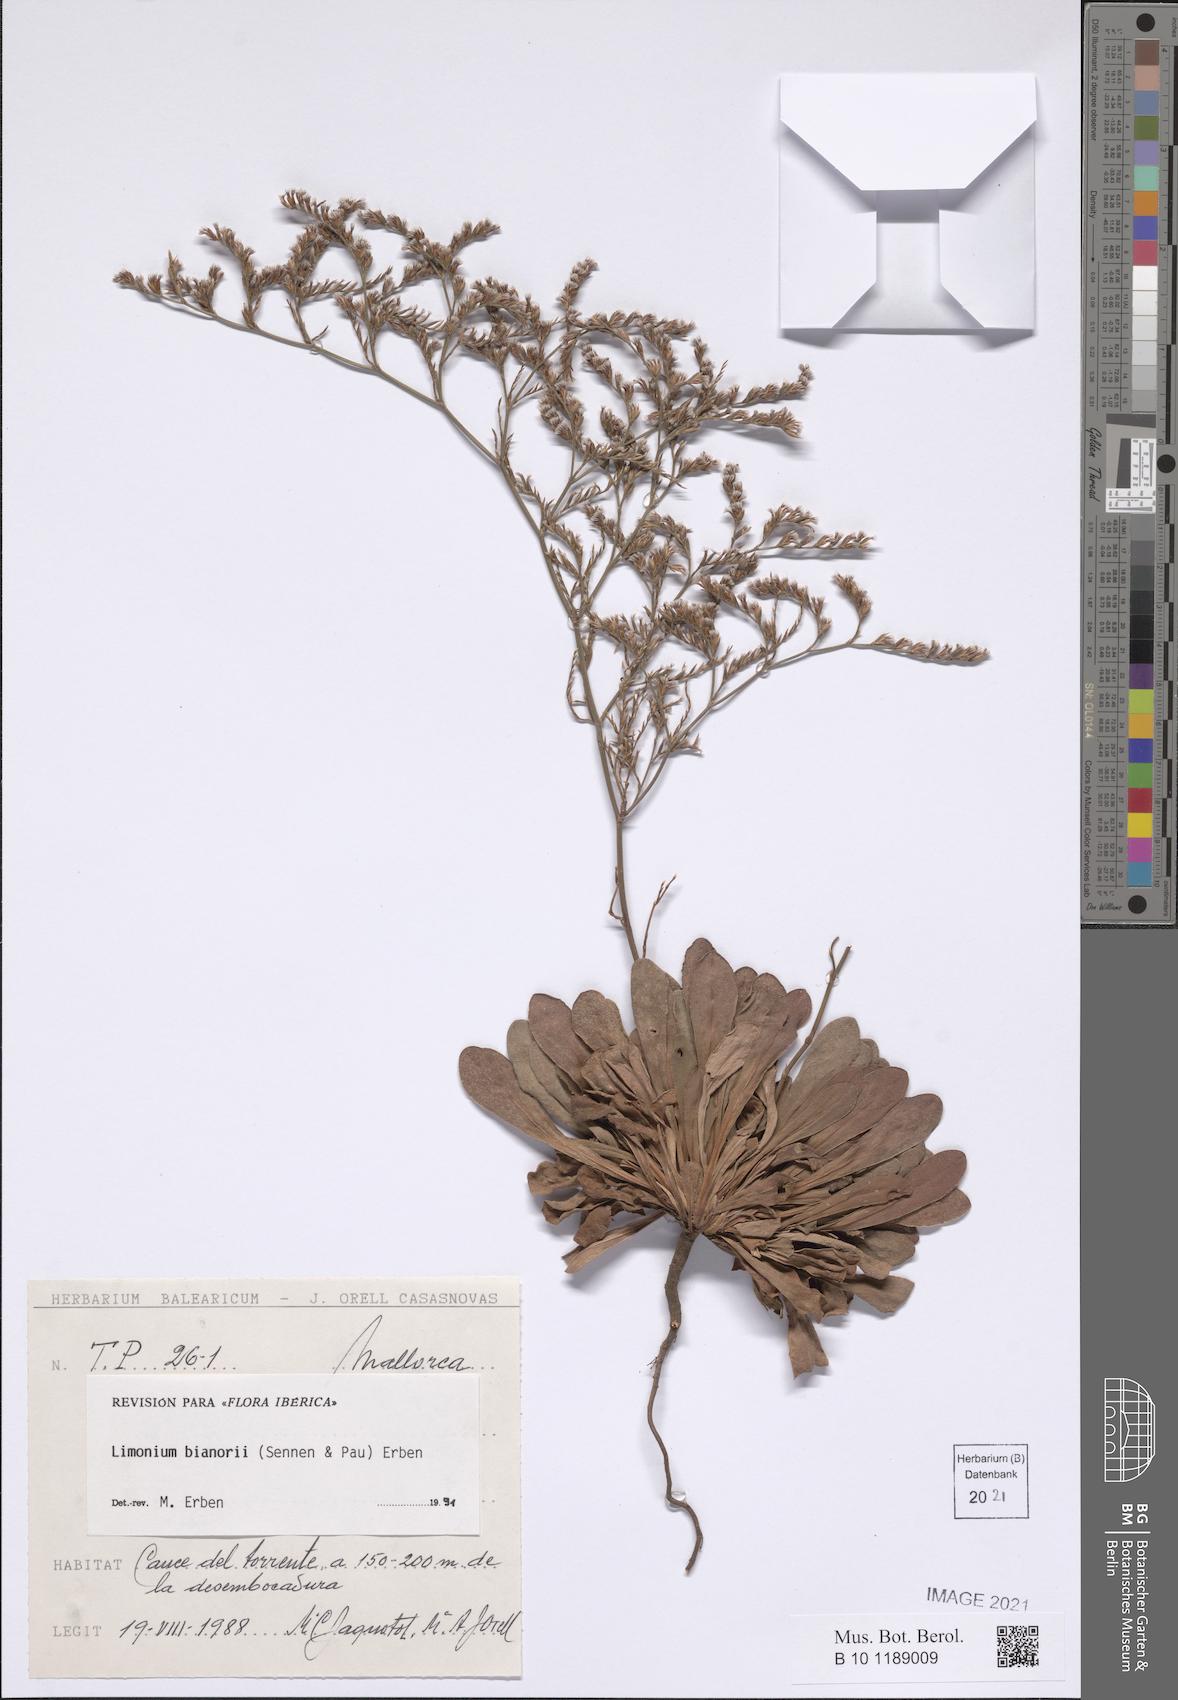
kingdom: Plantae
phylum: Tracheophyta
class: Magnoliopsida
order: Caryophyllales
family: Plumbaginaceae
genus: Limonium
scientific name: Limonium bianorii
